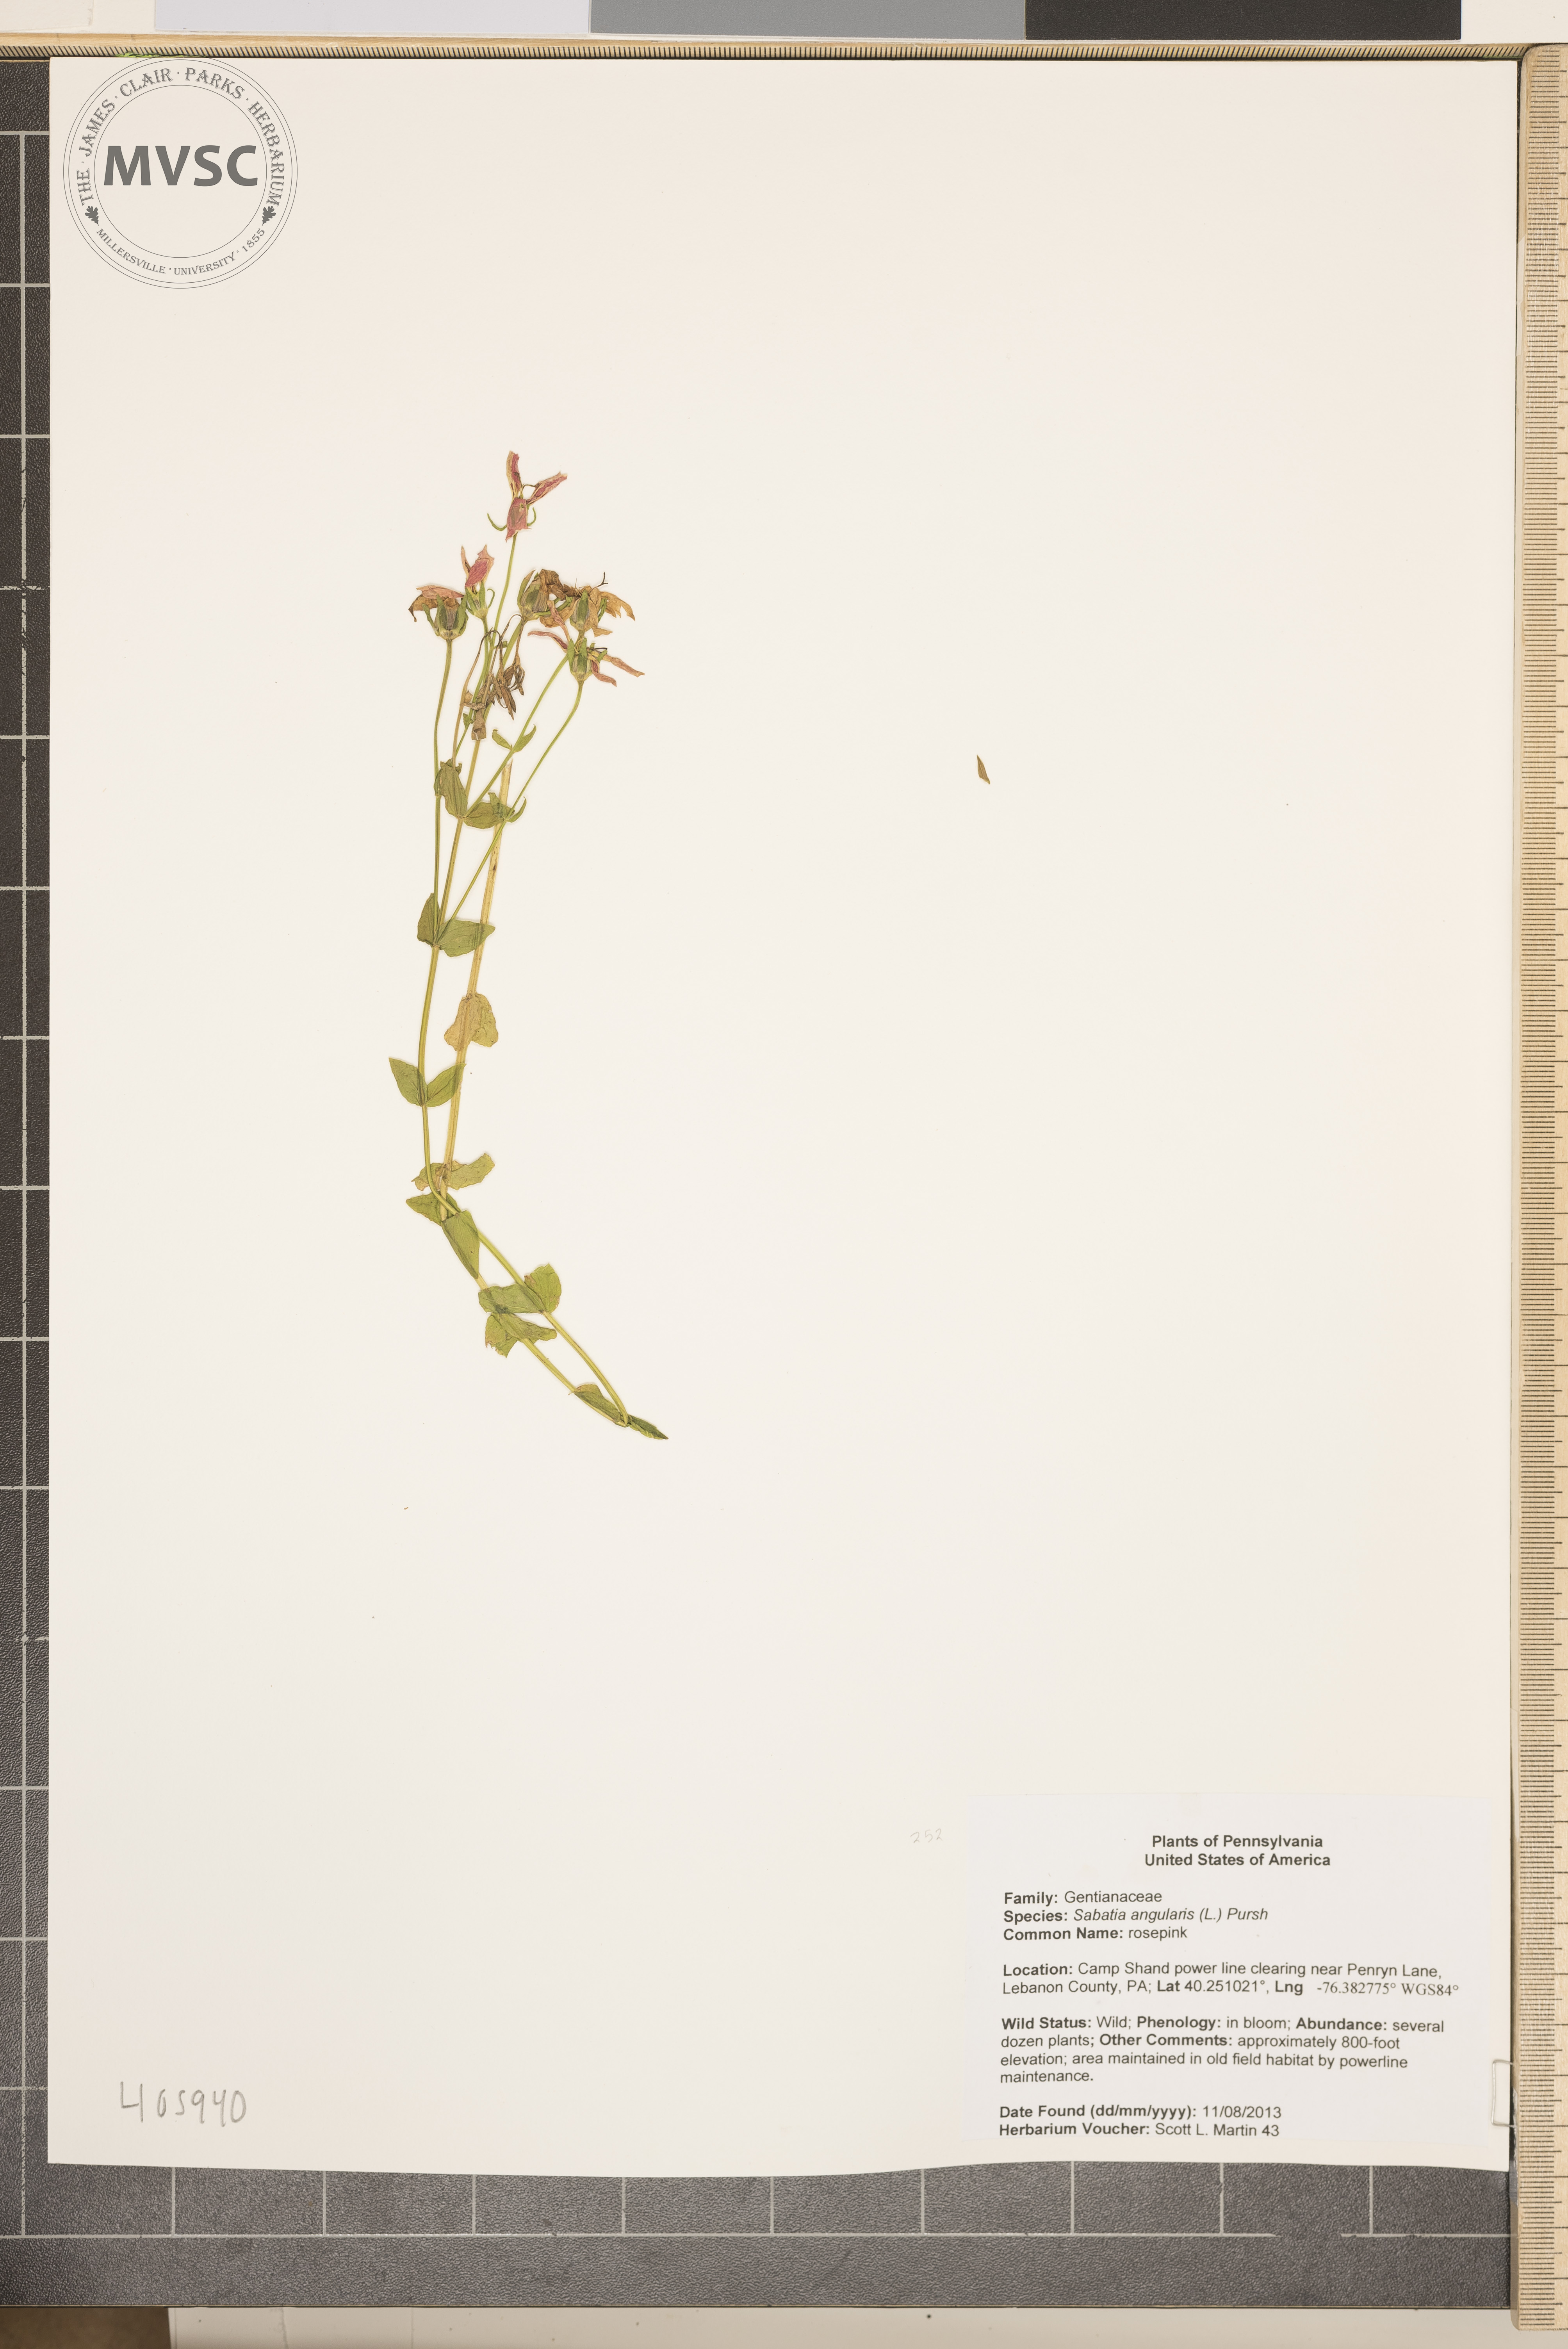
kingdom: Plantae
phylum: Tracheophyta
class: Magnoliopsida
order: Gentianales
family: Gentianaceae
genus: Sabatia
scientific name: Sabatia angularis
